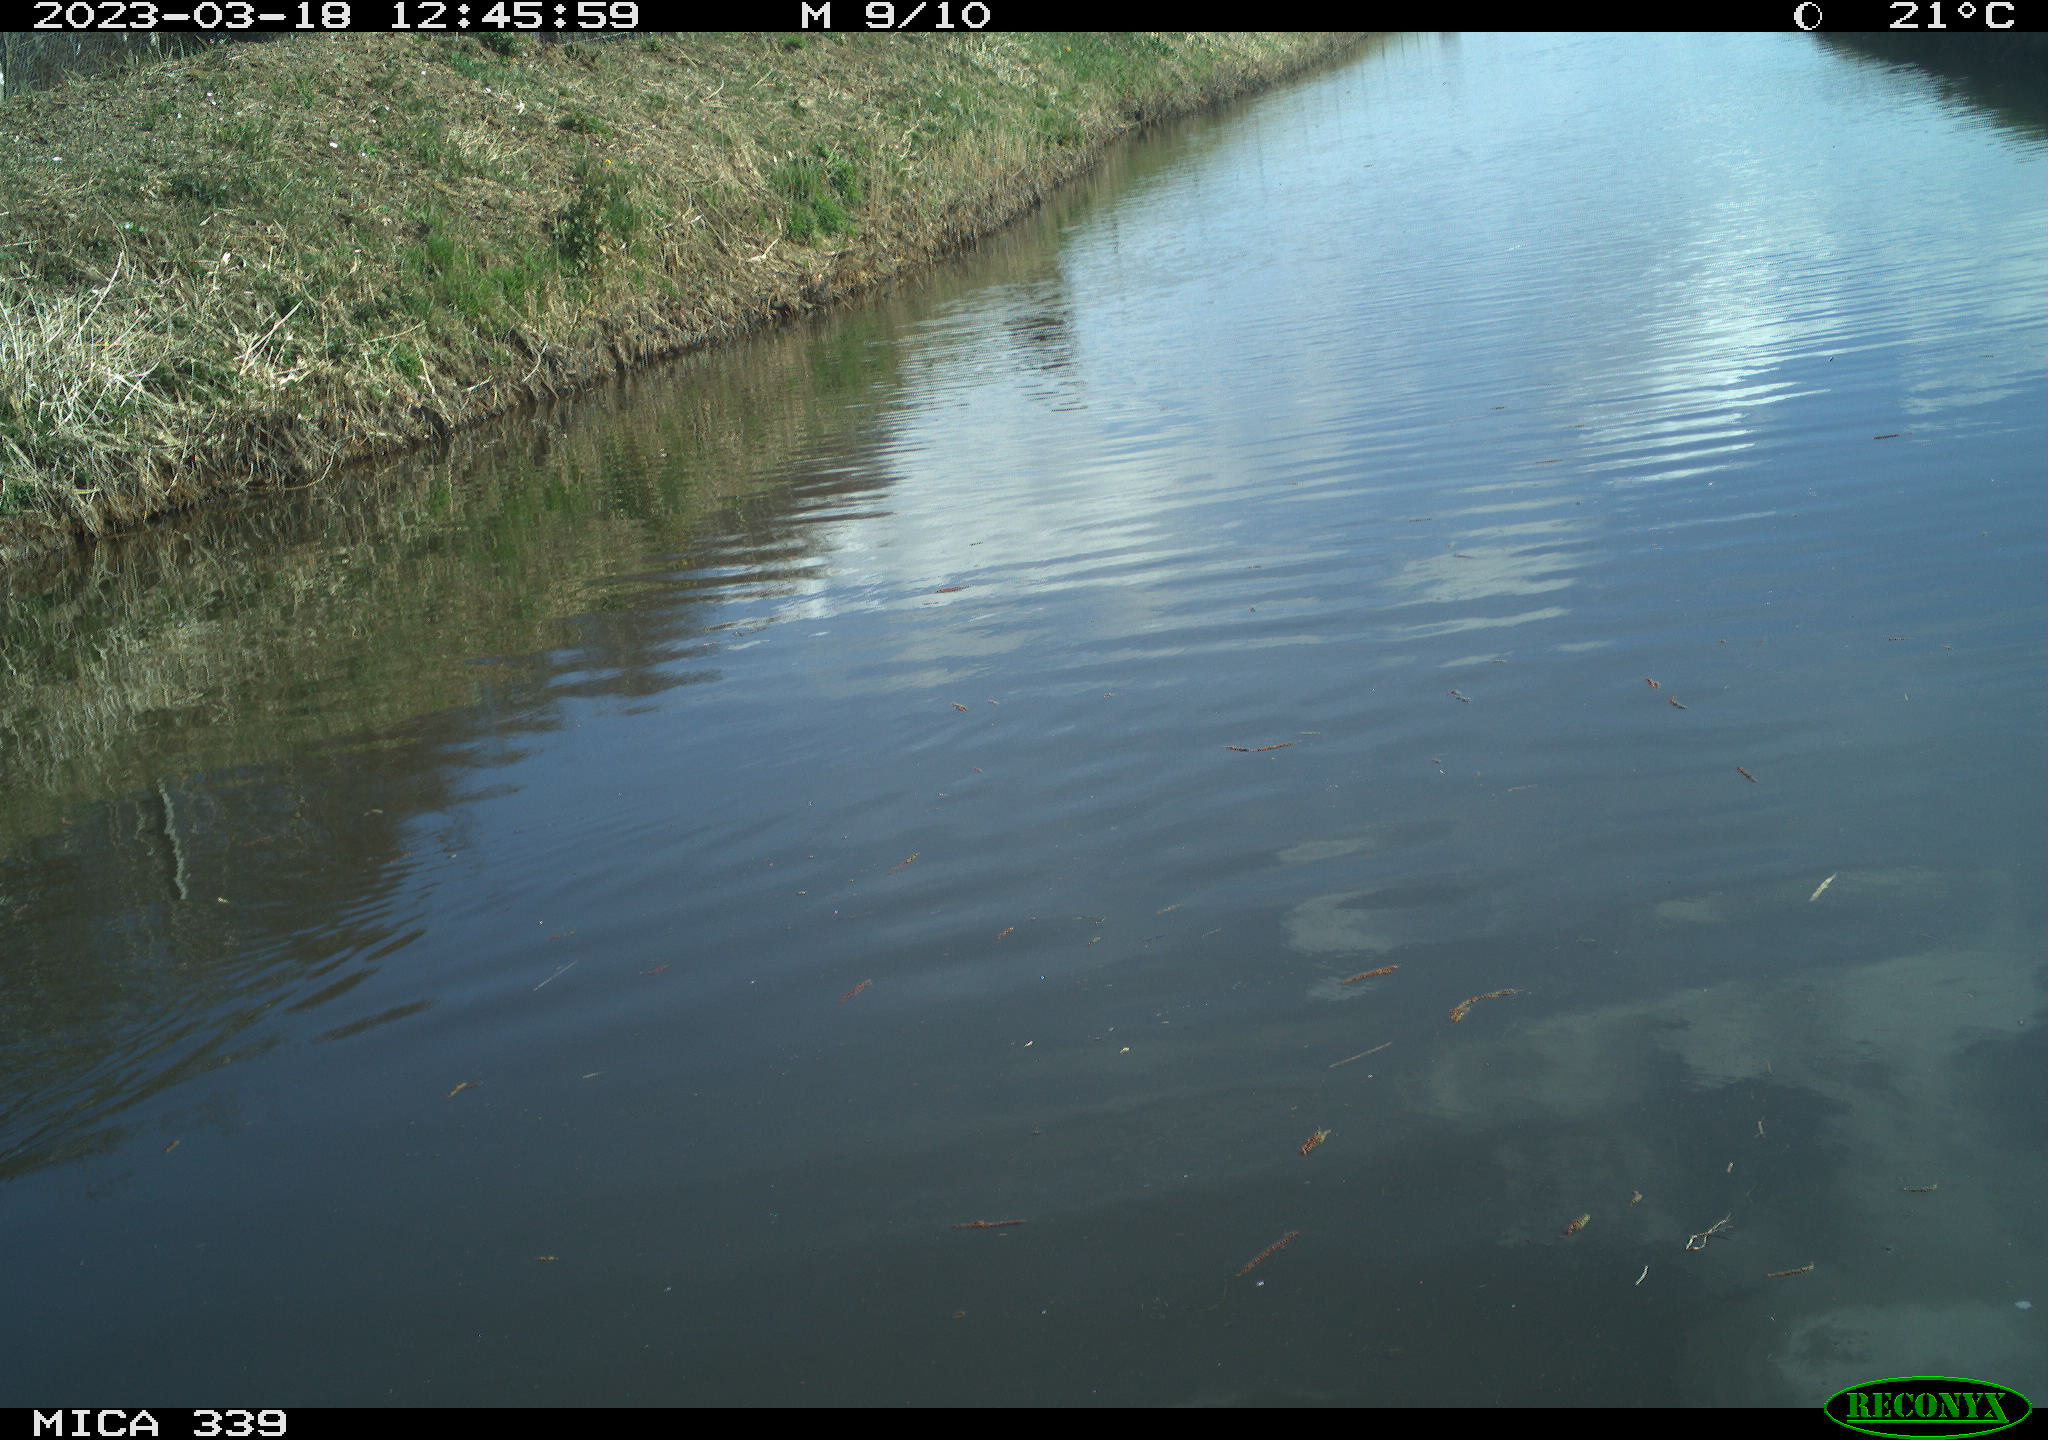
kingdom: Animalia
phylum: Chordata
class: Aves
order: Gruiformes
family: Rallidae
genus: Fulica
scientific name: Fulica atra
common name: Eurasian coot
